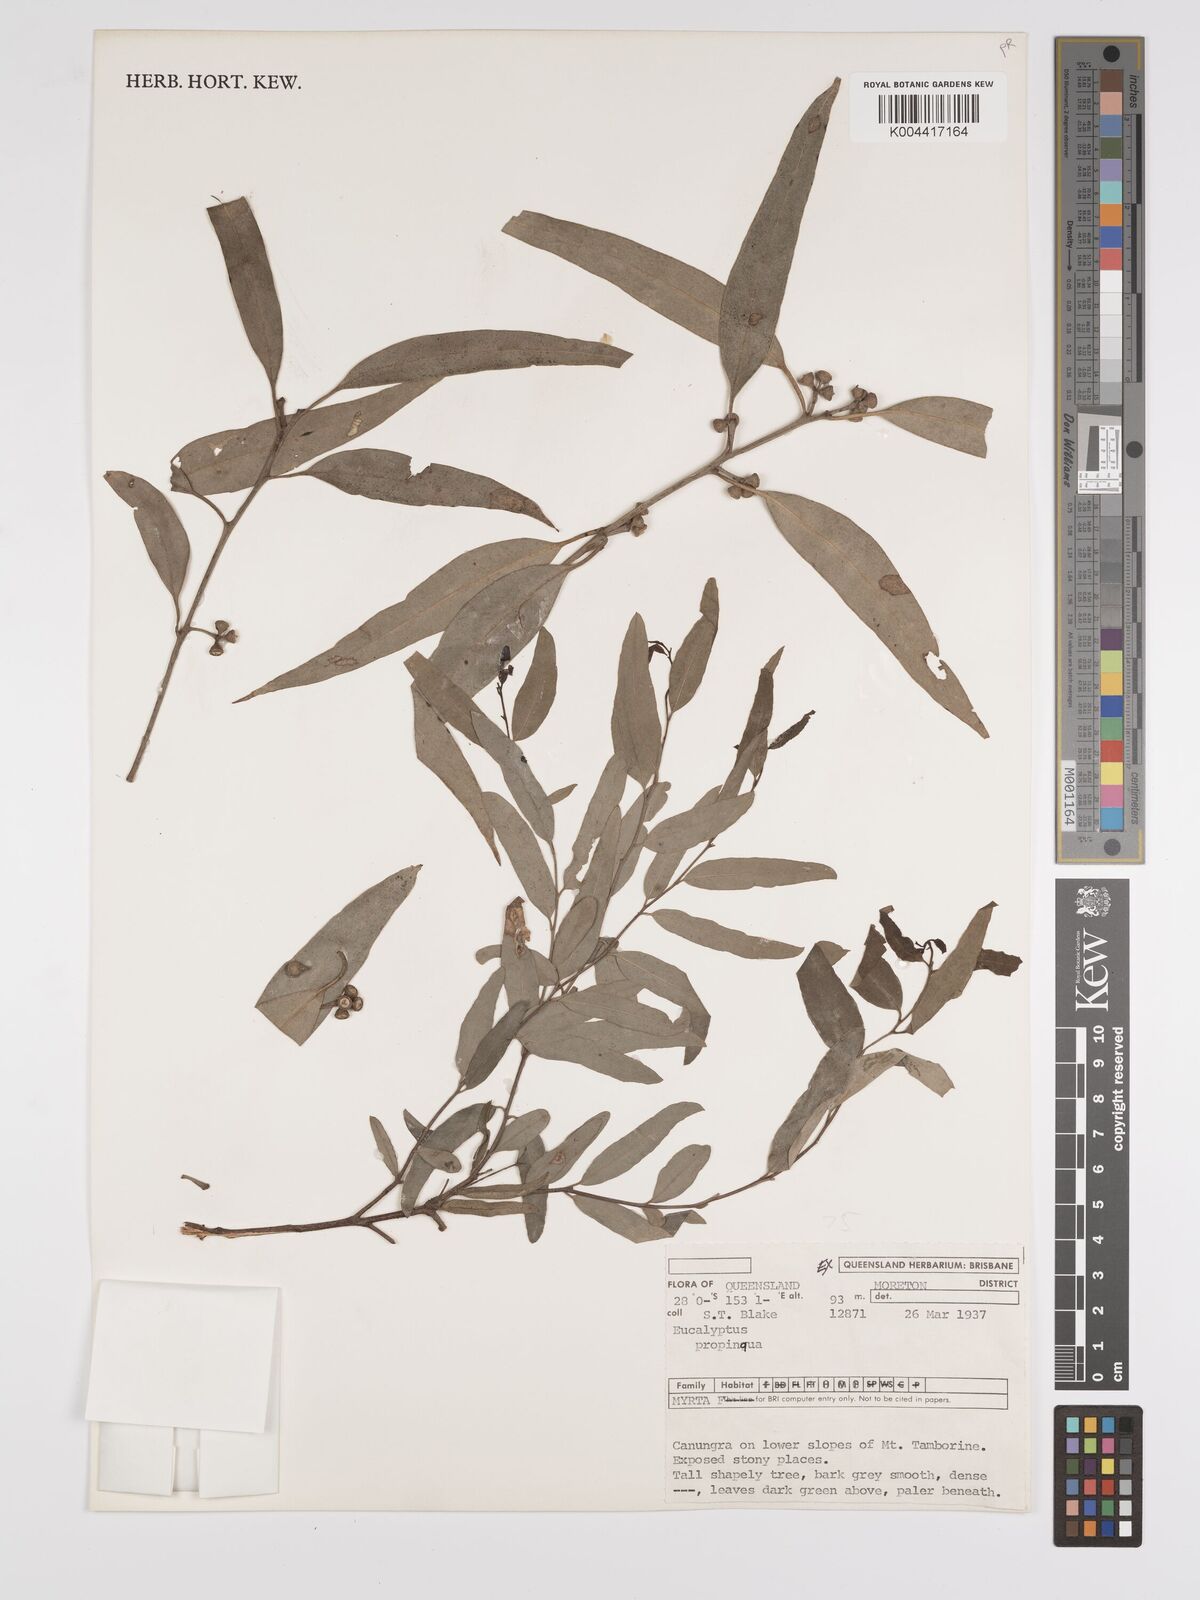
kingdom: Plantae
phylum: Tracheophyta
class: Magnoliopsida
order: Myrtales
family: Myrtaceae
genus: Eucalyptus
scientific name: Eucalyptus
